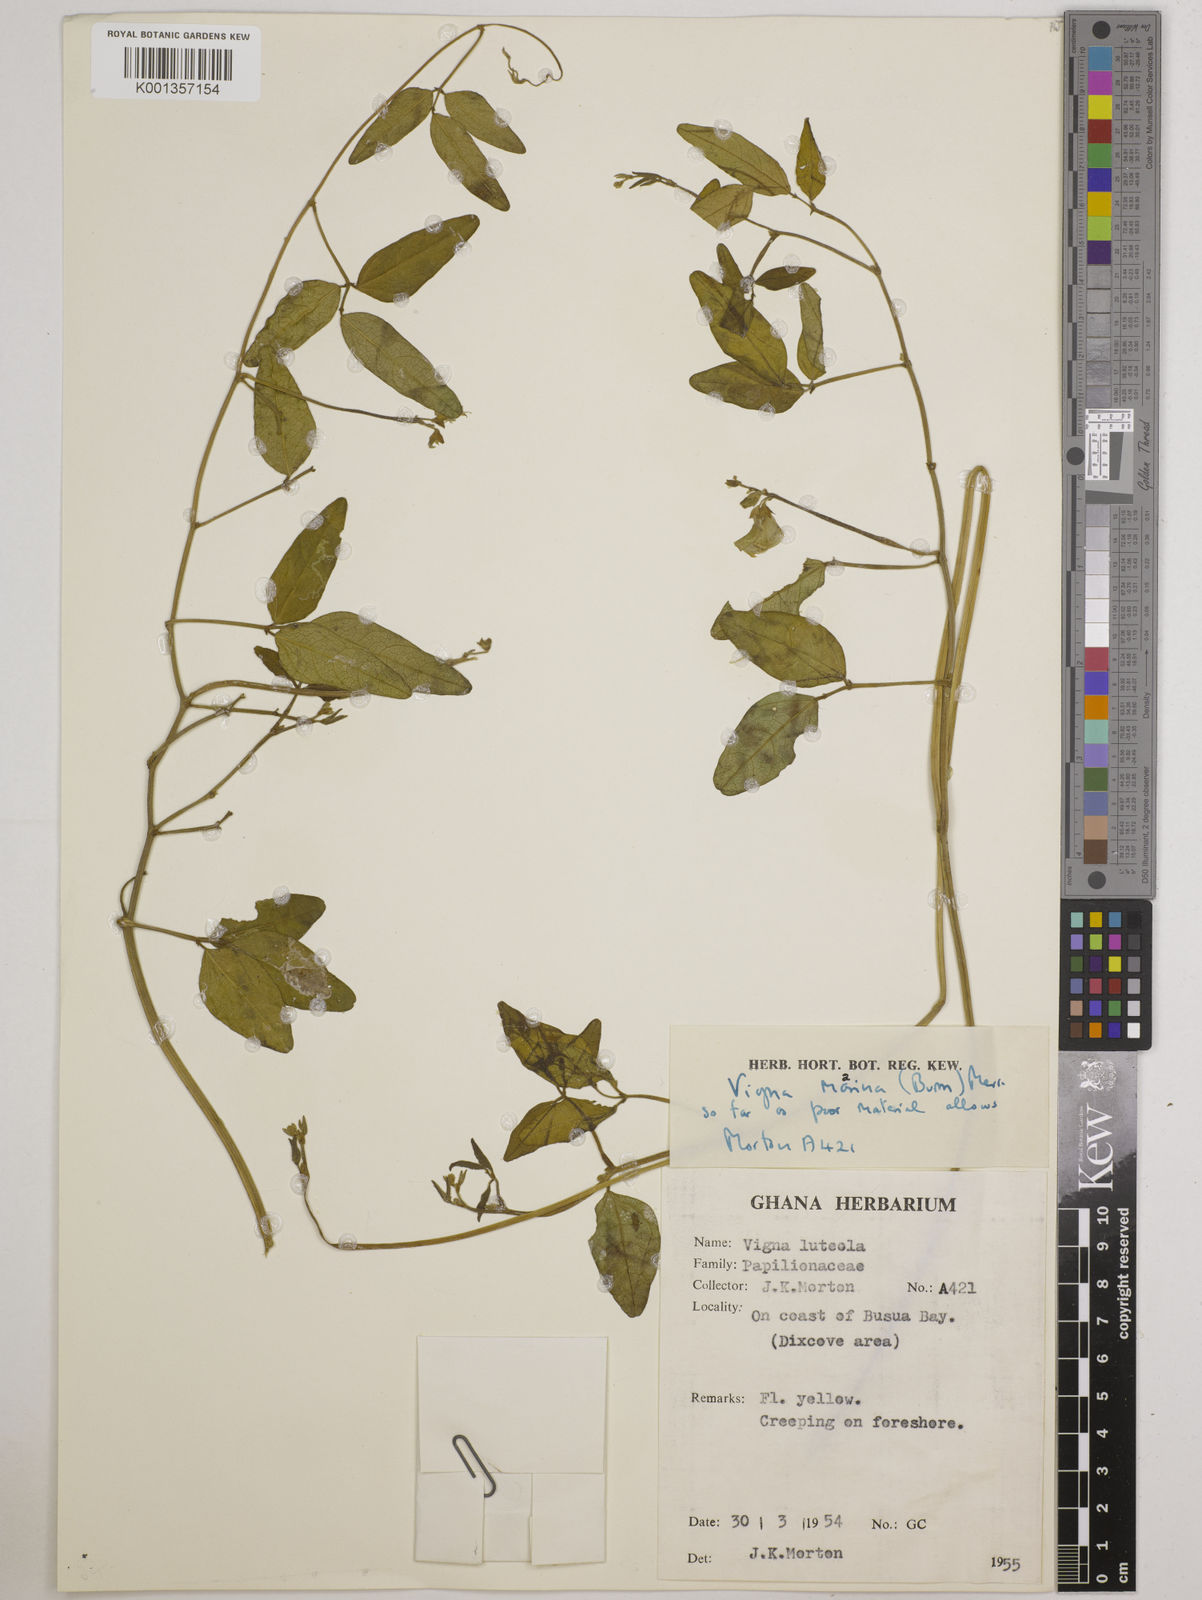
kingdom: Plantae
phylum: Tracheophyta
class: Magnoliopsida
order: Fabales
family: Fabaceae
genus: Vigna
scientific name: Vigna marina
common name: Dune-bean
